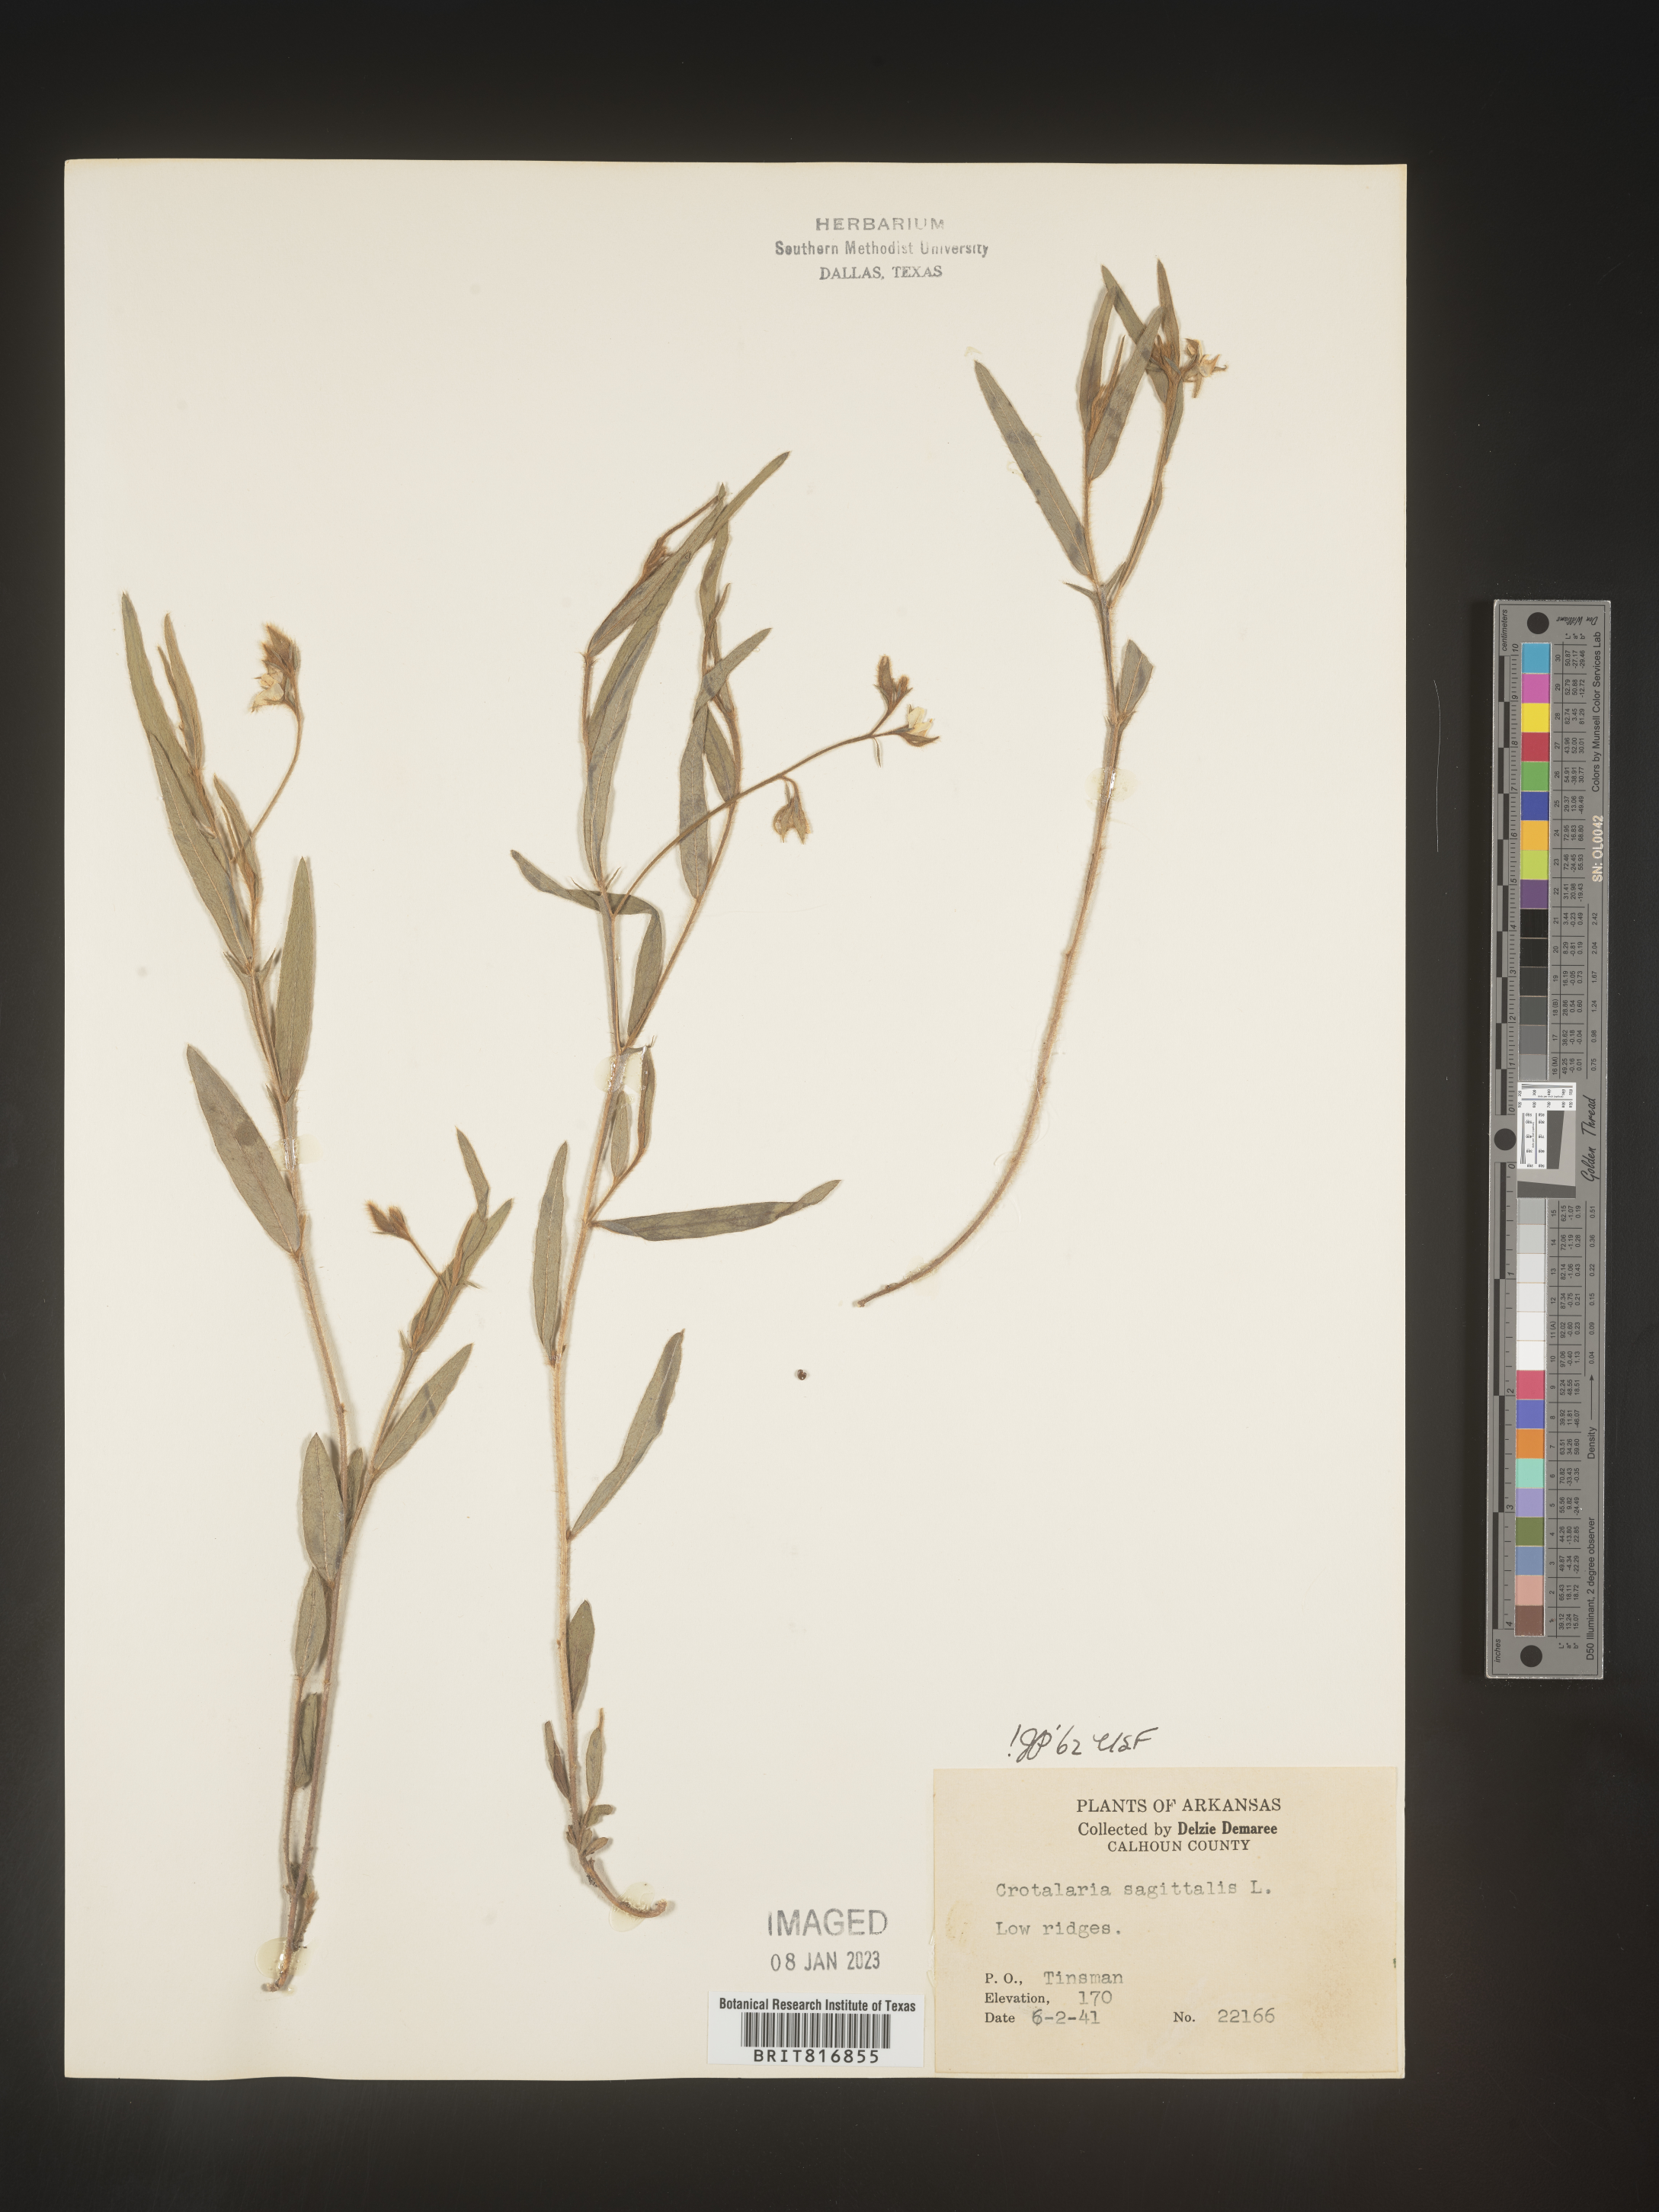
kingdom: Plantae
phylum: Tracheophyta
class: Magnoliopsida
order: Fabales
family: Fabaceae
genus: Crotalaria
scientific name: Crotalaria sagittalis
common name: Arrowhead rattlebox
